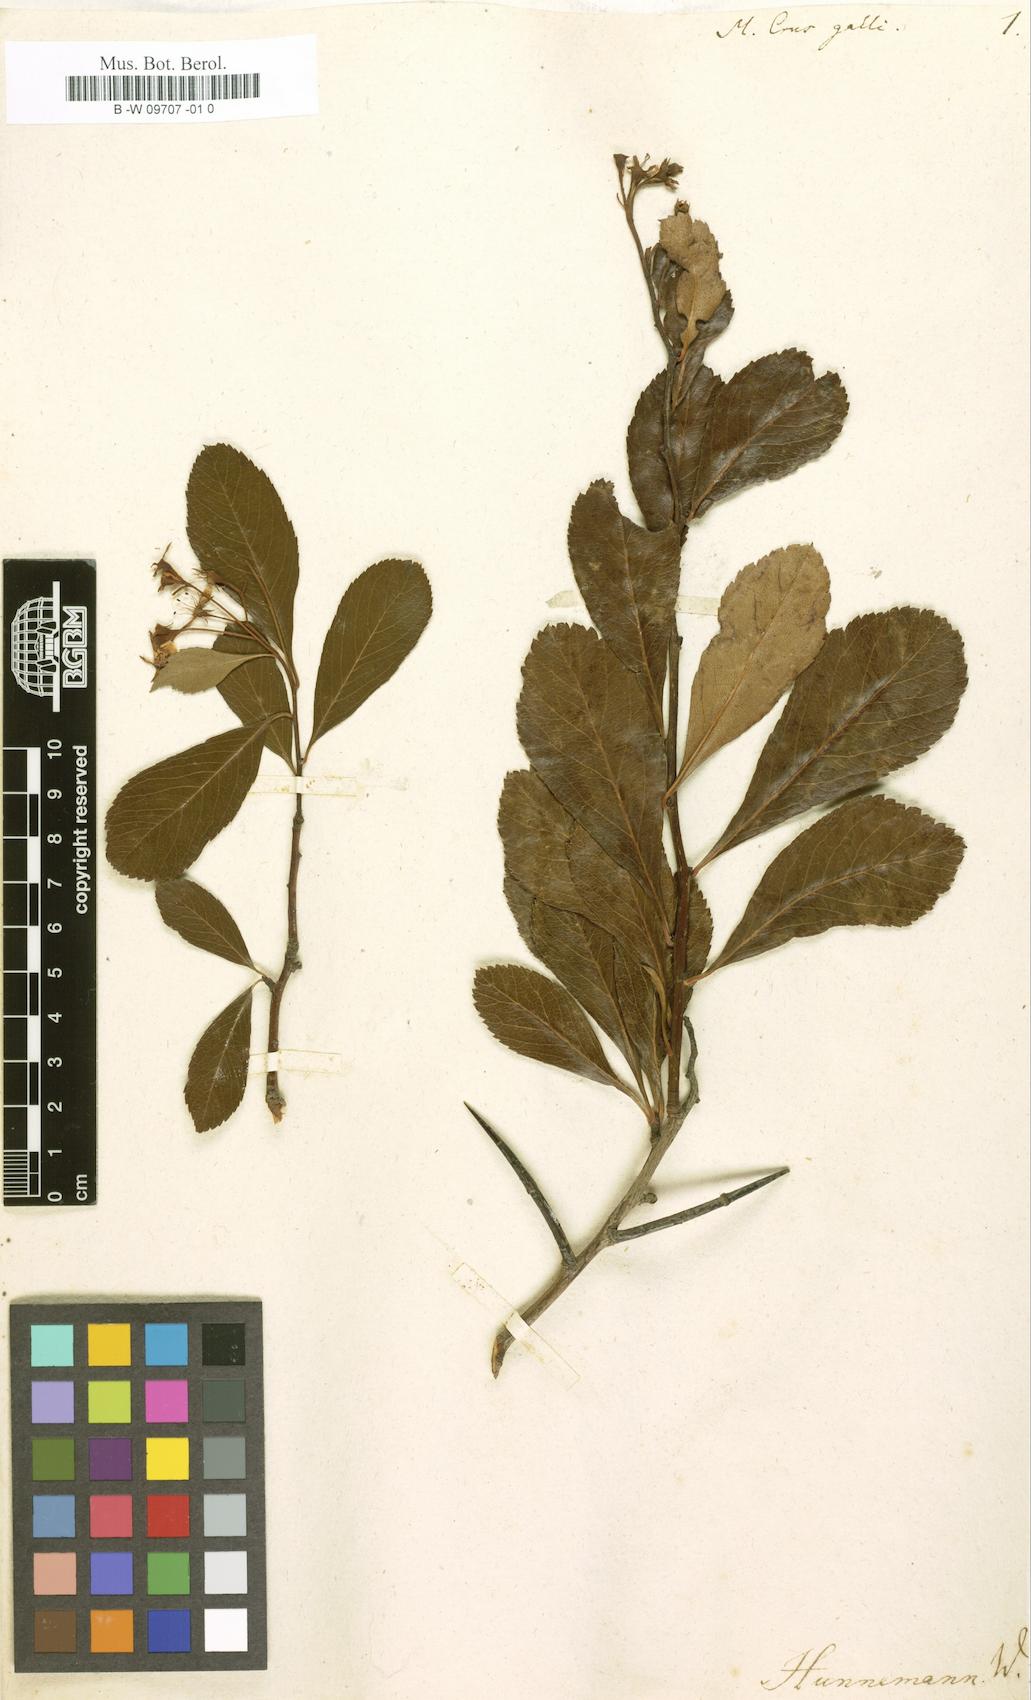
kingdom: Plantae
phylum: Tracheophyta
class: Magnoliopsida
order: Rosales
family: Rosaceae
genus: Crataegus
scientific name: Crataegus crus-galli
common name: Cockspurthorn
